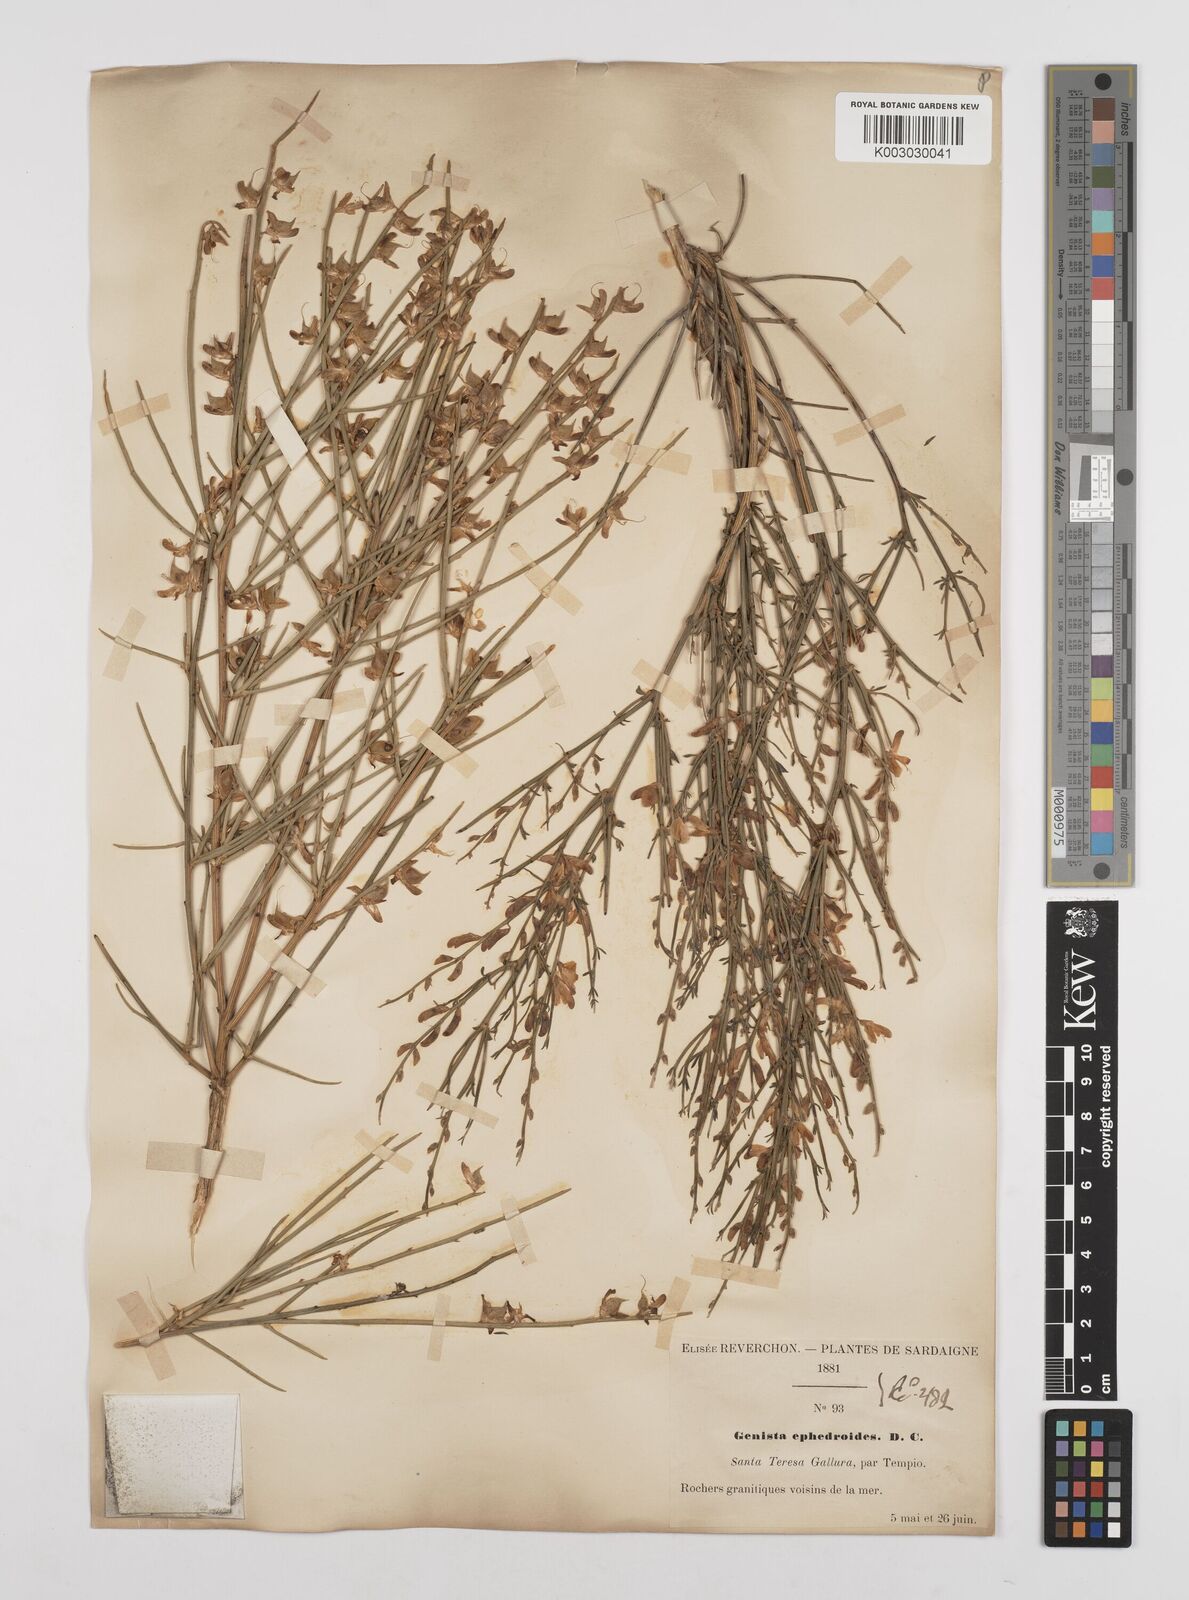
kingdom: Plantae
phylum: Tracheophyta
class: Magnoliopsida
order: Fabales
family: Fabaceae
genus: Genista
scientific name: Genista ephedroides
